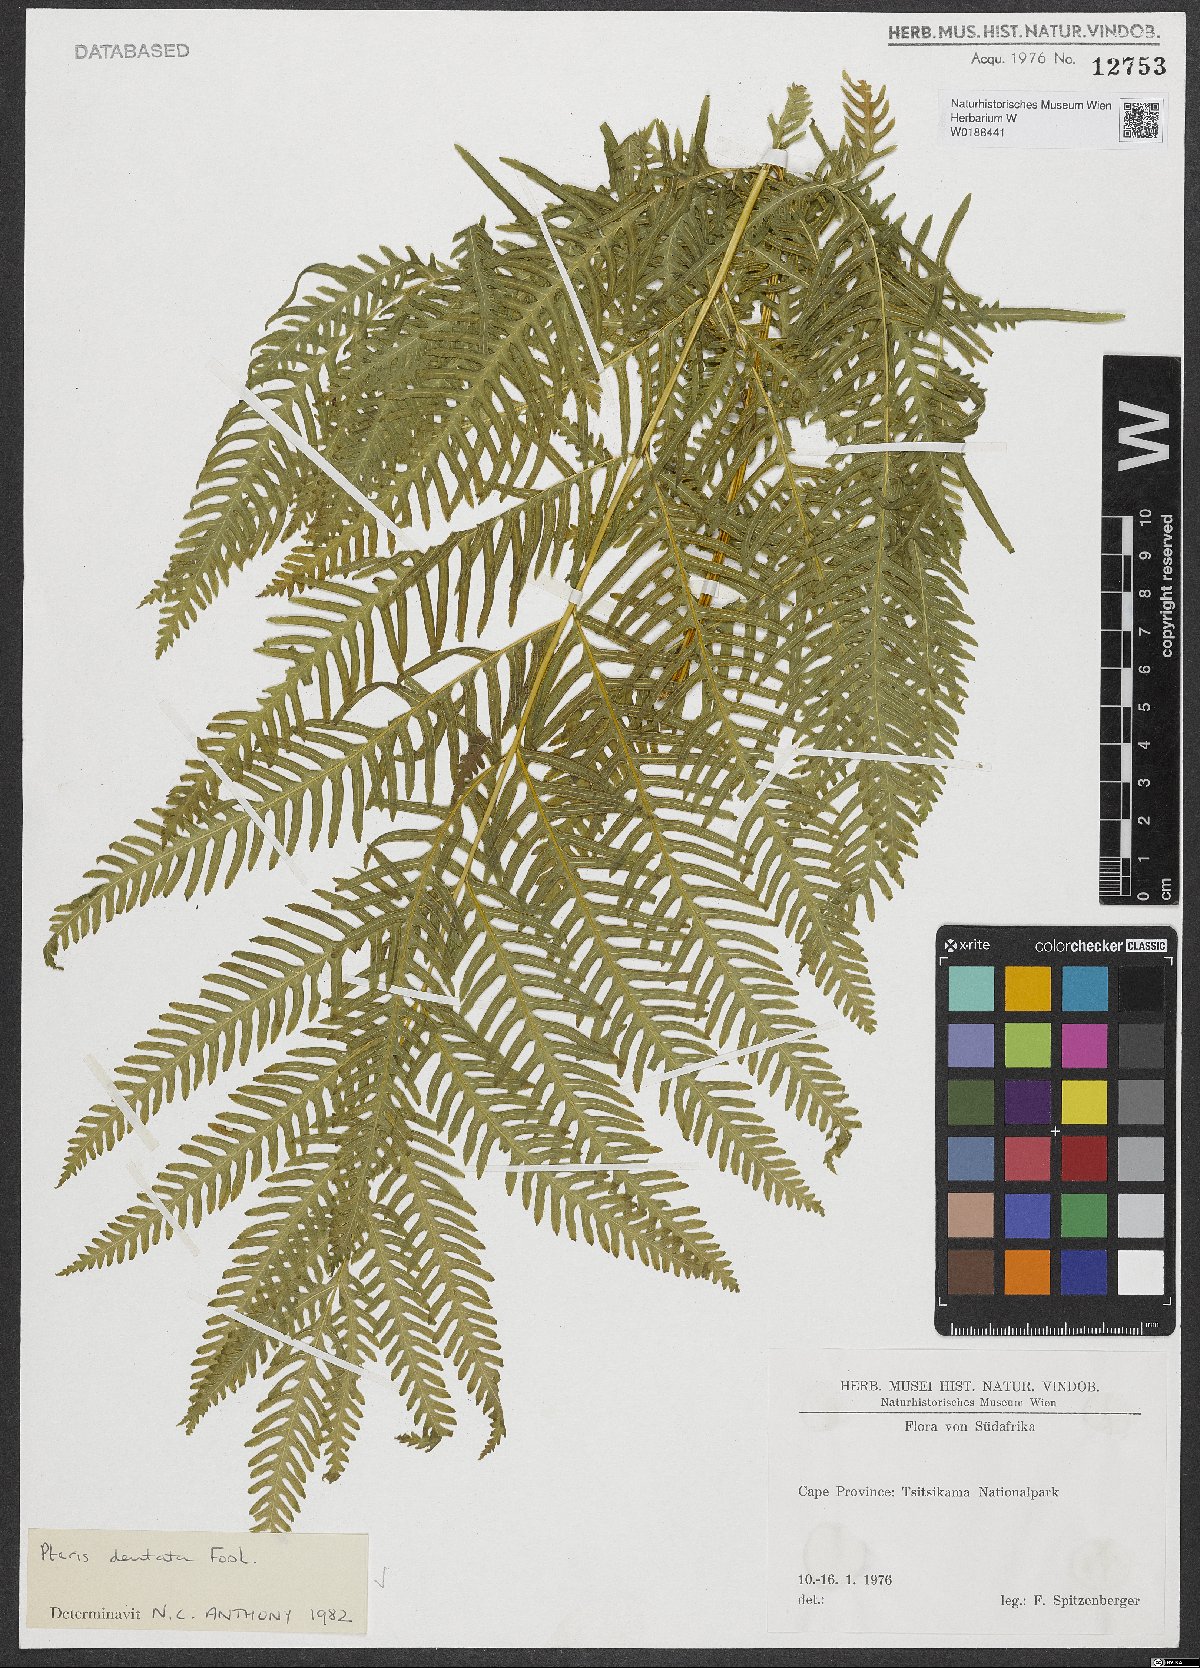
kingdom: Plantae
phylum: Tracheophyta
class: Polypodiopsida
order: Polypodiales
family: Pteridaceae
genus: Pteris
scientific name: Pteris dentata
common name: Toothed brake
